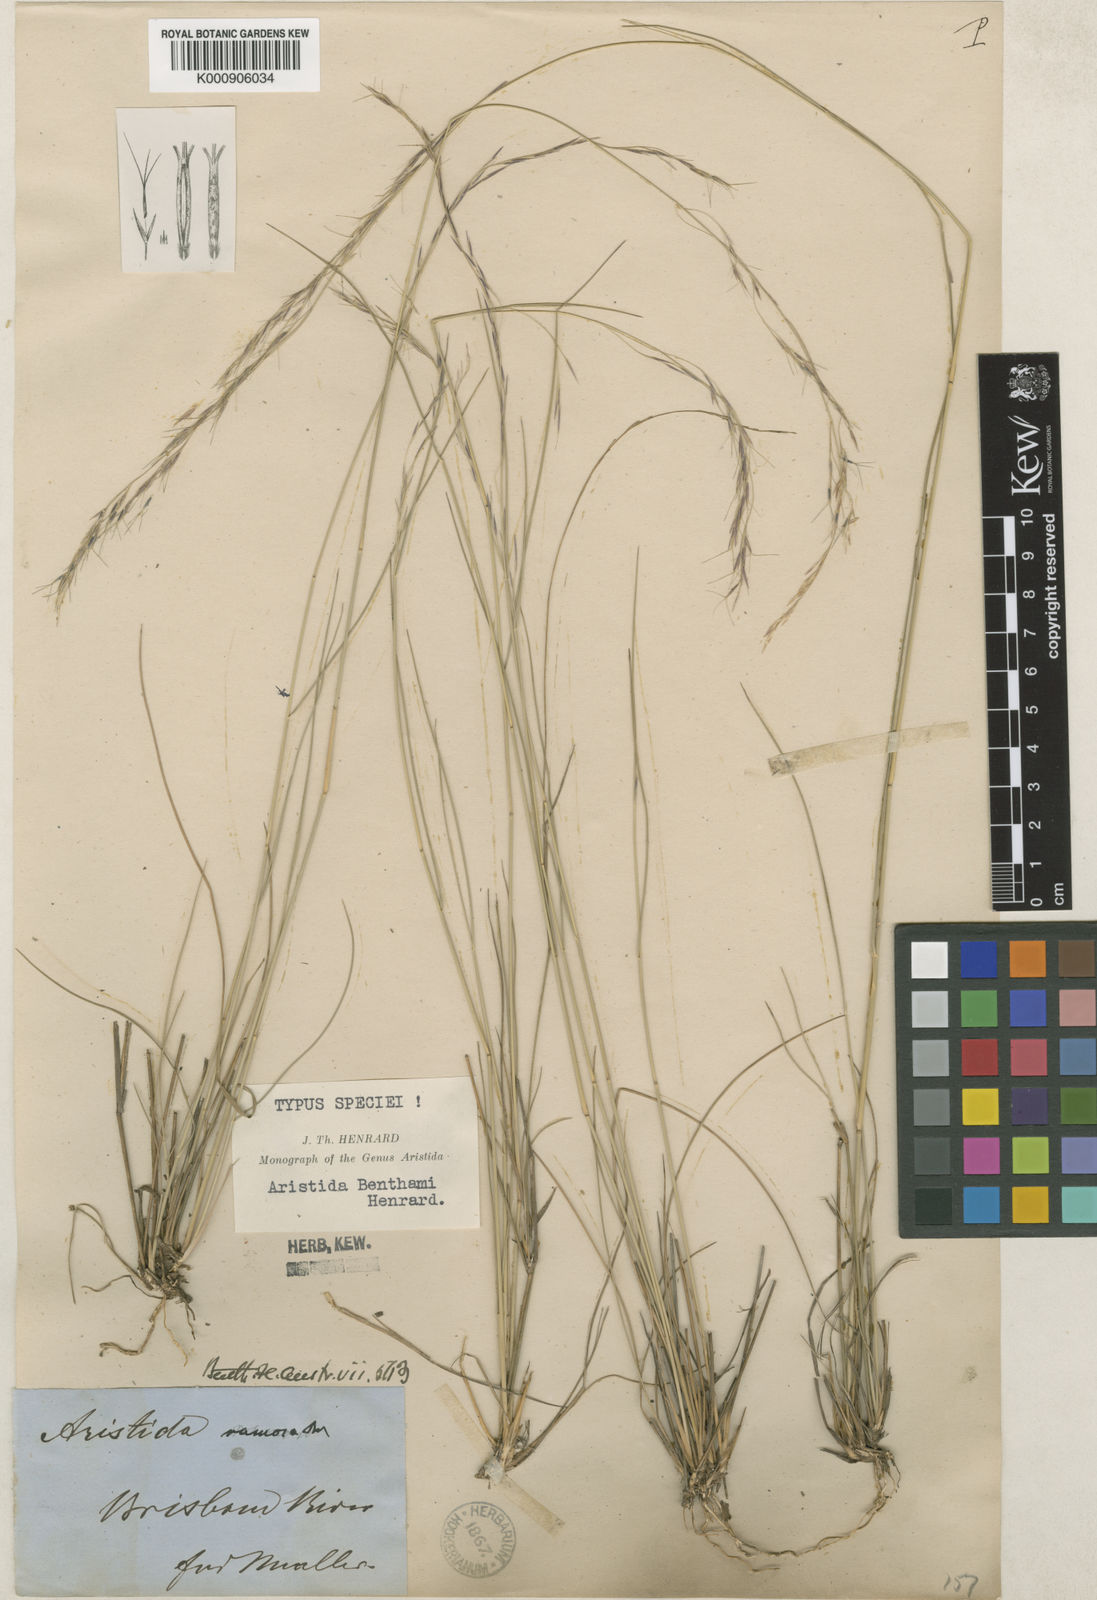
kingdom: Plantae
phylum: Tracheophyta
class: Liliopsida
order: Poales
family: Poaceae
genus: Aristida
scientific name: Aristida benthamii
